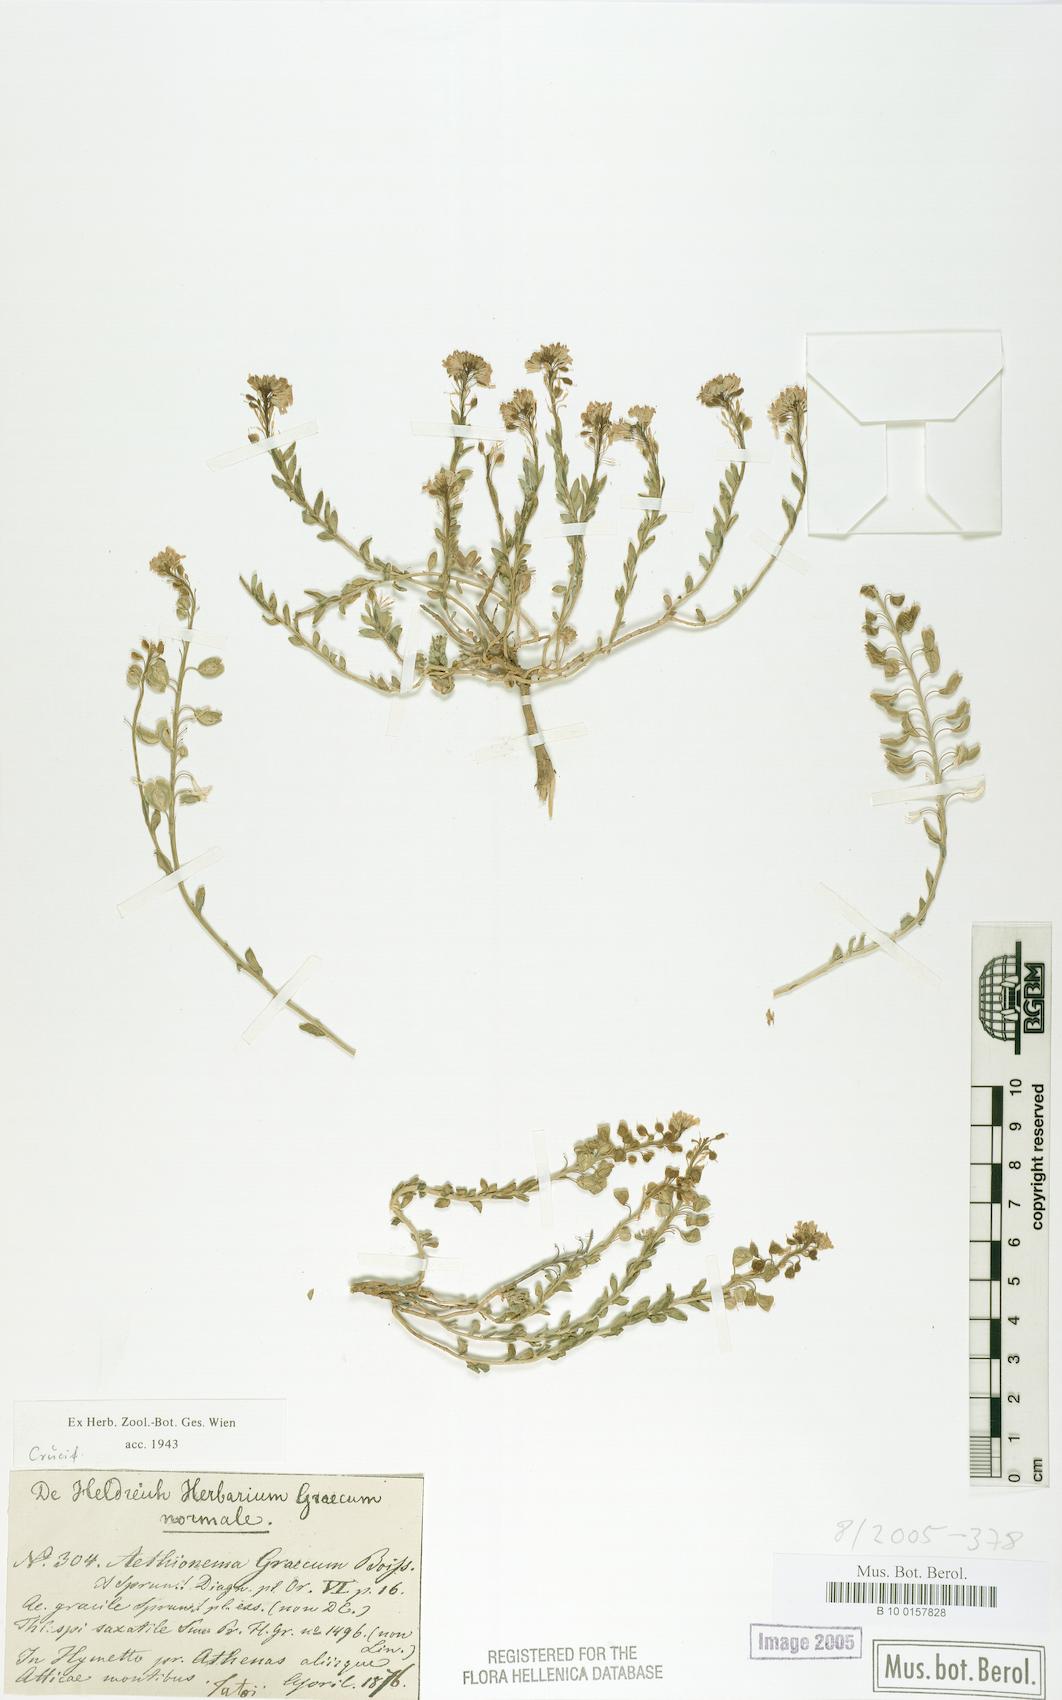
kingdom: Plantae
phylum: Tracheophyta
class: Magnoliopsida
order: Brassicales
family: Brassicaceae
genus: Aethionema
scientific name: Aethionema saxatile
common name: Burnt candytuft
